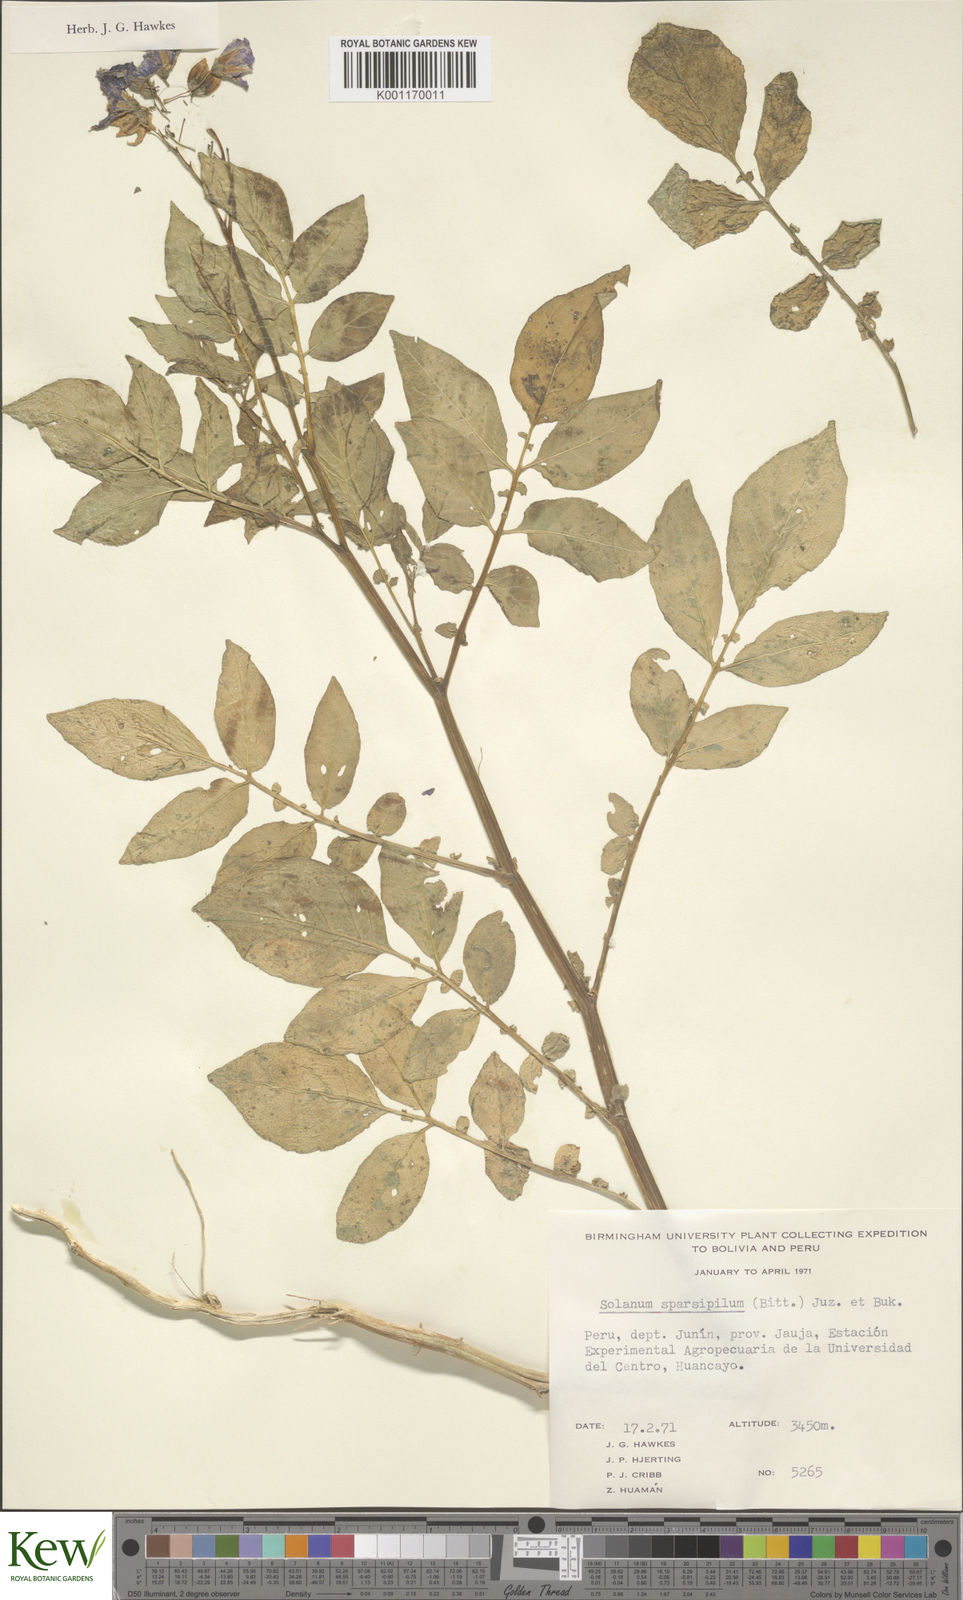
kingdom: Plantae
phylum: Tracheophyta
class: Magnoliopsida
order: Solanales
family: Solanaceae
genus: Solanum
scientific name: Solanum brevicaule
